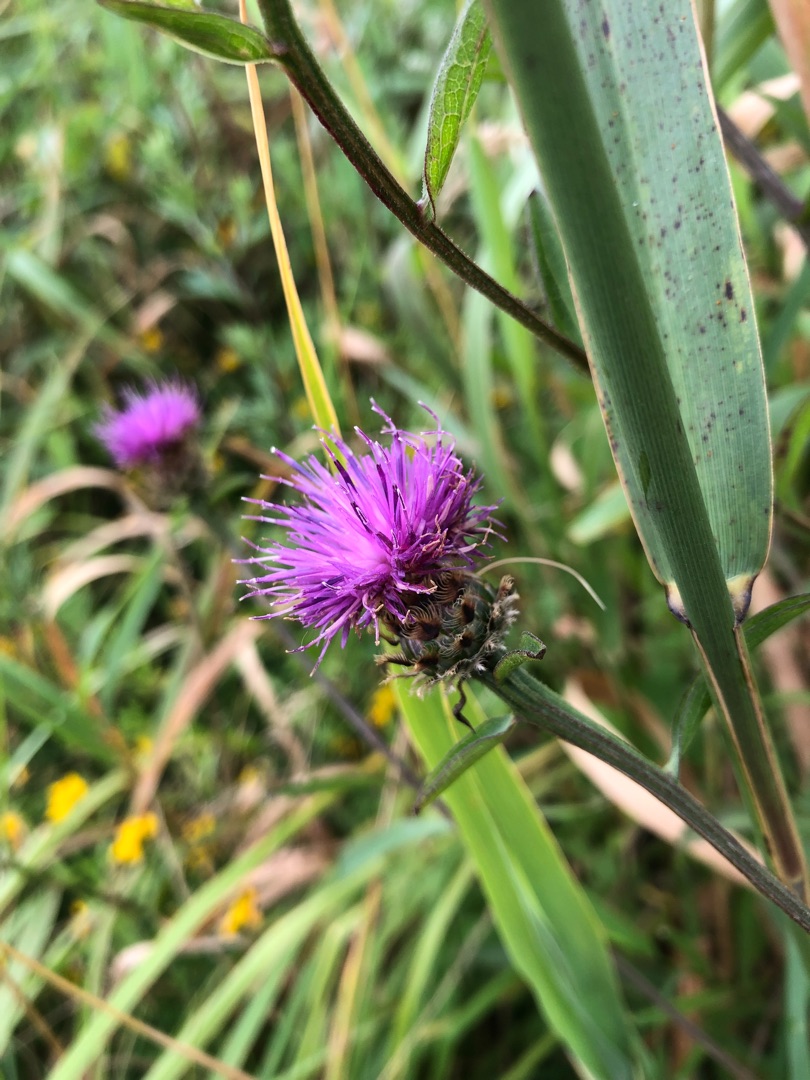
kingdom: Plantae
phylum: Tracheophyta
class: Magnoliopsida
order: Asterales
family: Asteraceae
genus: Centaurea
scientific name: Centaurea moncktonii
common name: Hybrid-knopurt
